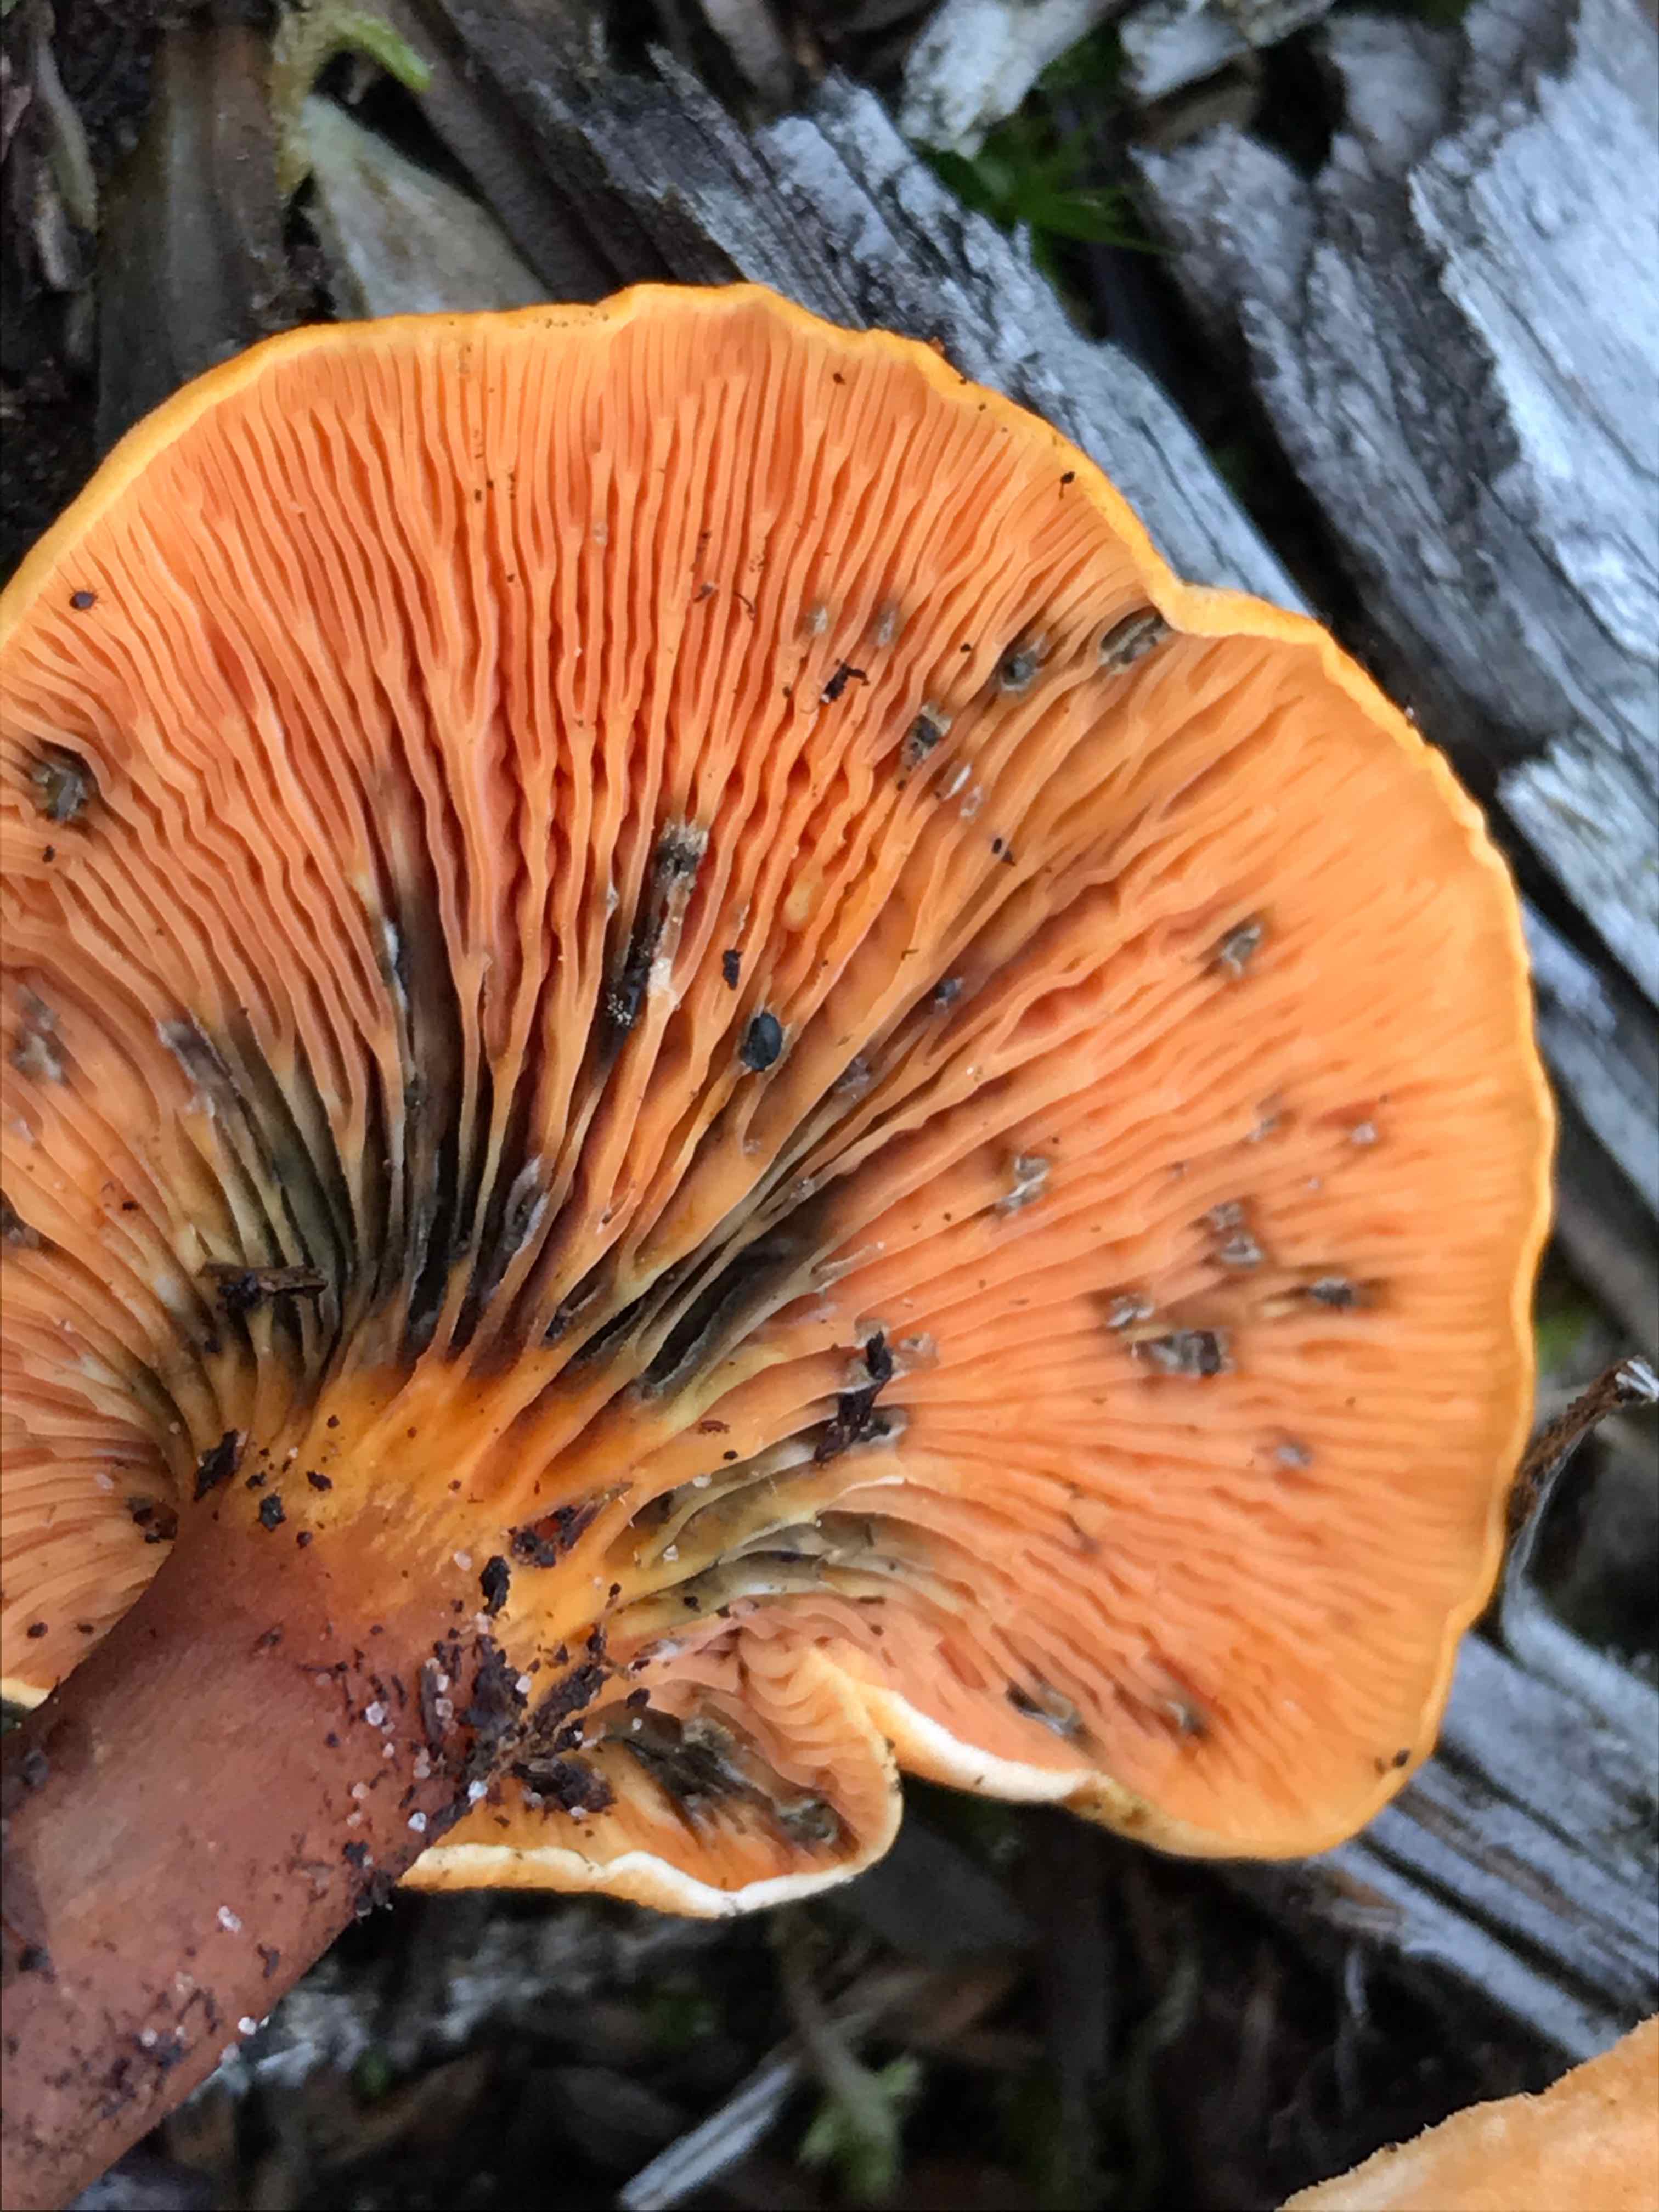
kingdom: Fungi
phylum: Basidiomycota
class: Agaricomycetes
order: Boletales
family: Hygrophoropsidaceae
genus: Hygrophoropsis
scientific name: Hygrophoropsis aurantiaca
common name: almindelig orangekantarel
